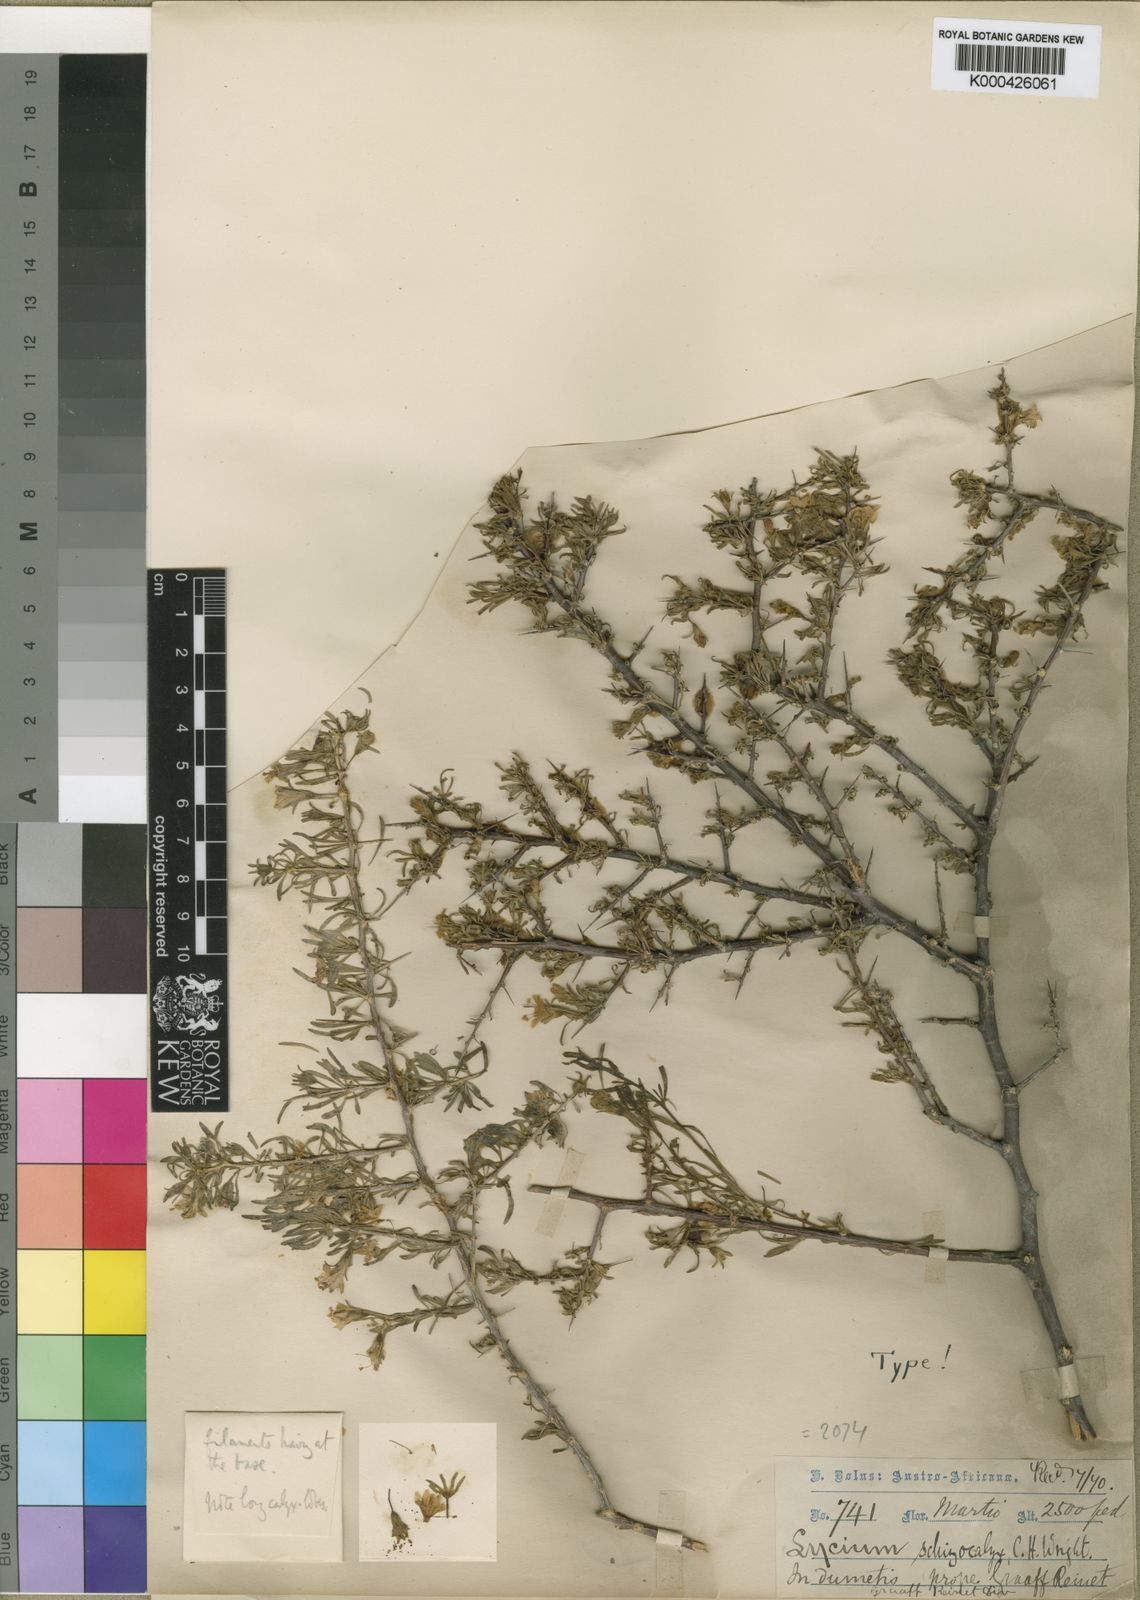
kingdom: Plantae
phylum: Tracheophyta
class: Magnoliopsida
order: Solanales
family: Solanaceae
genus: Lycium
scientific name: Lycium schizocalyx
